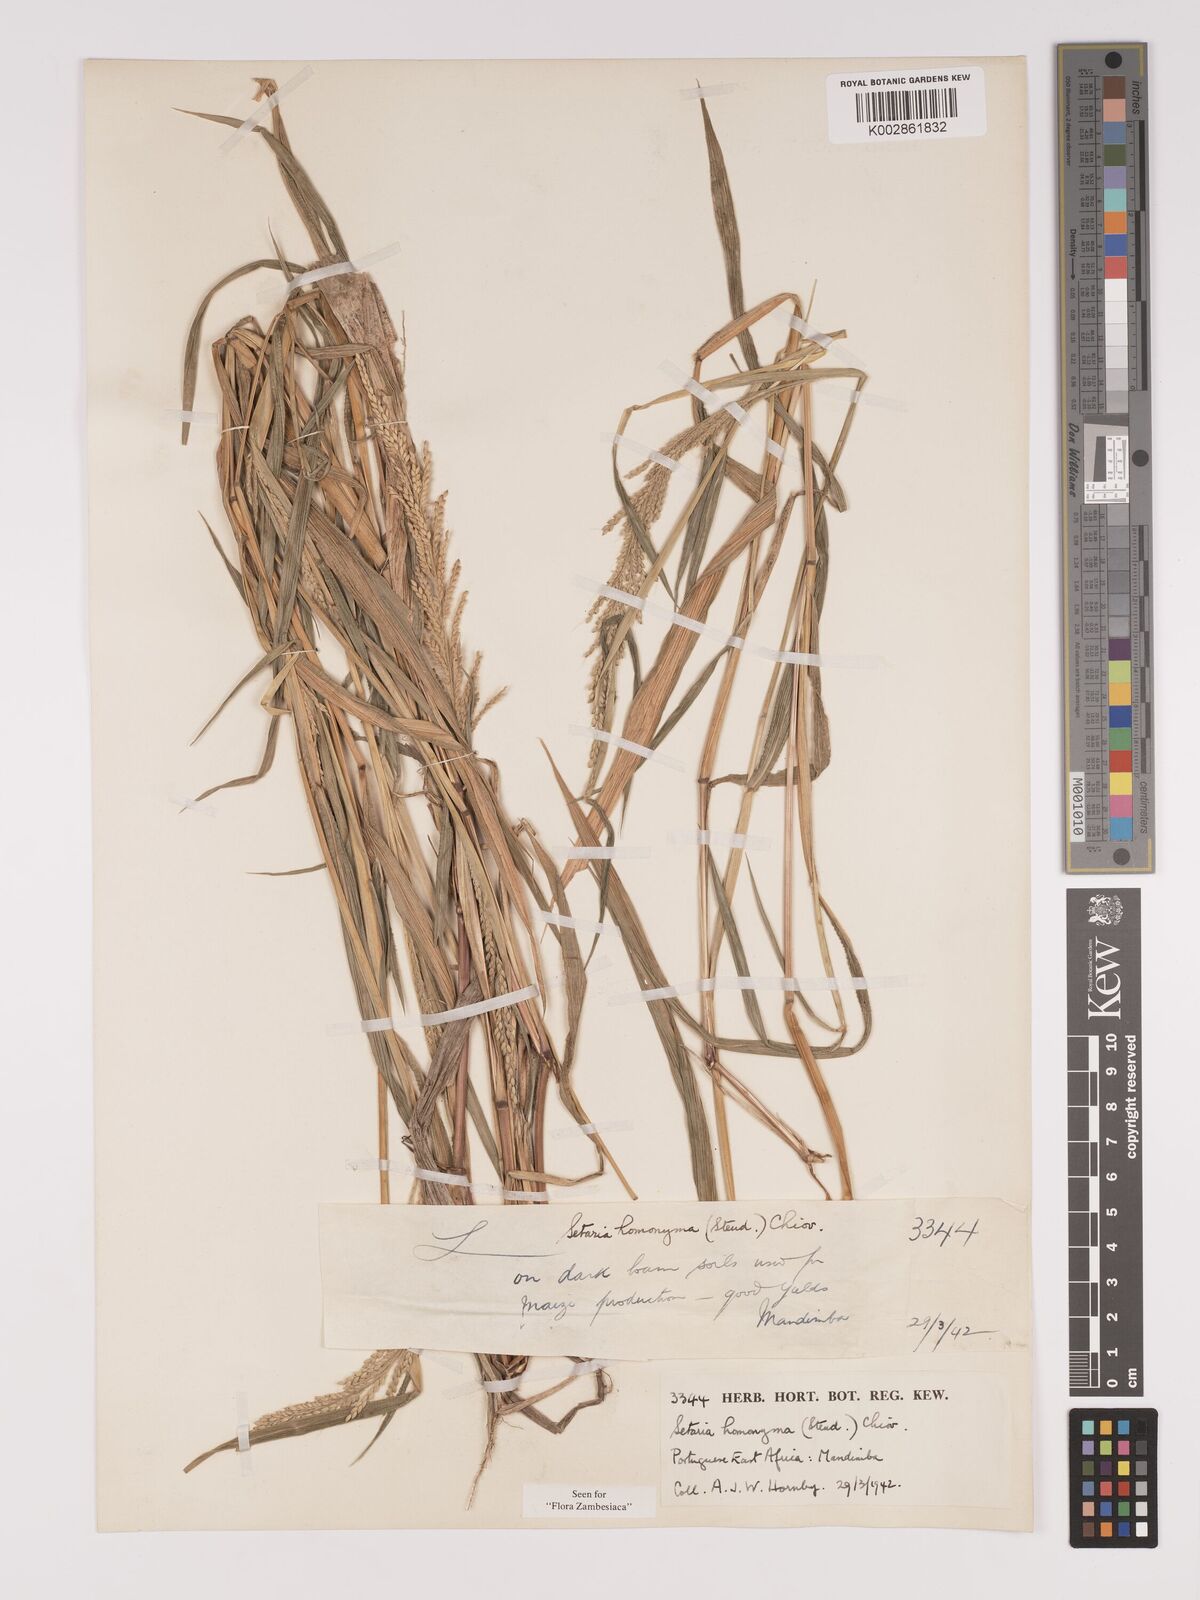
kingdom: Plantae
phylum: Tracheophyta
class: Liliopsida
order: Poales
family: Poaceae
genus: Setaria
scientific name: Setaria homonyma
